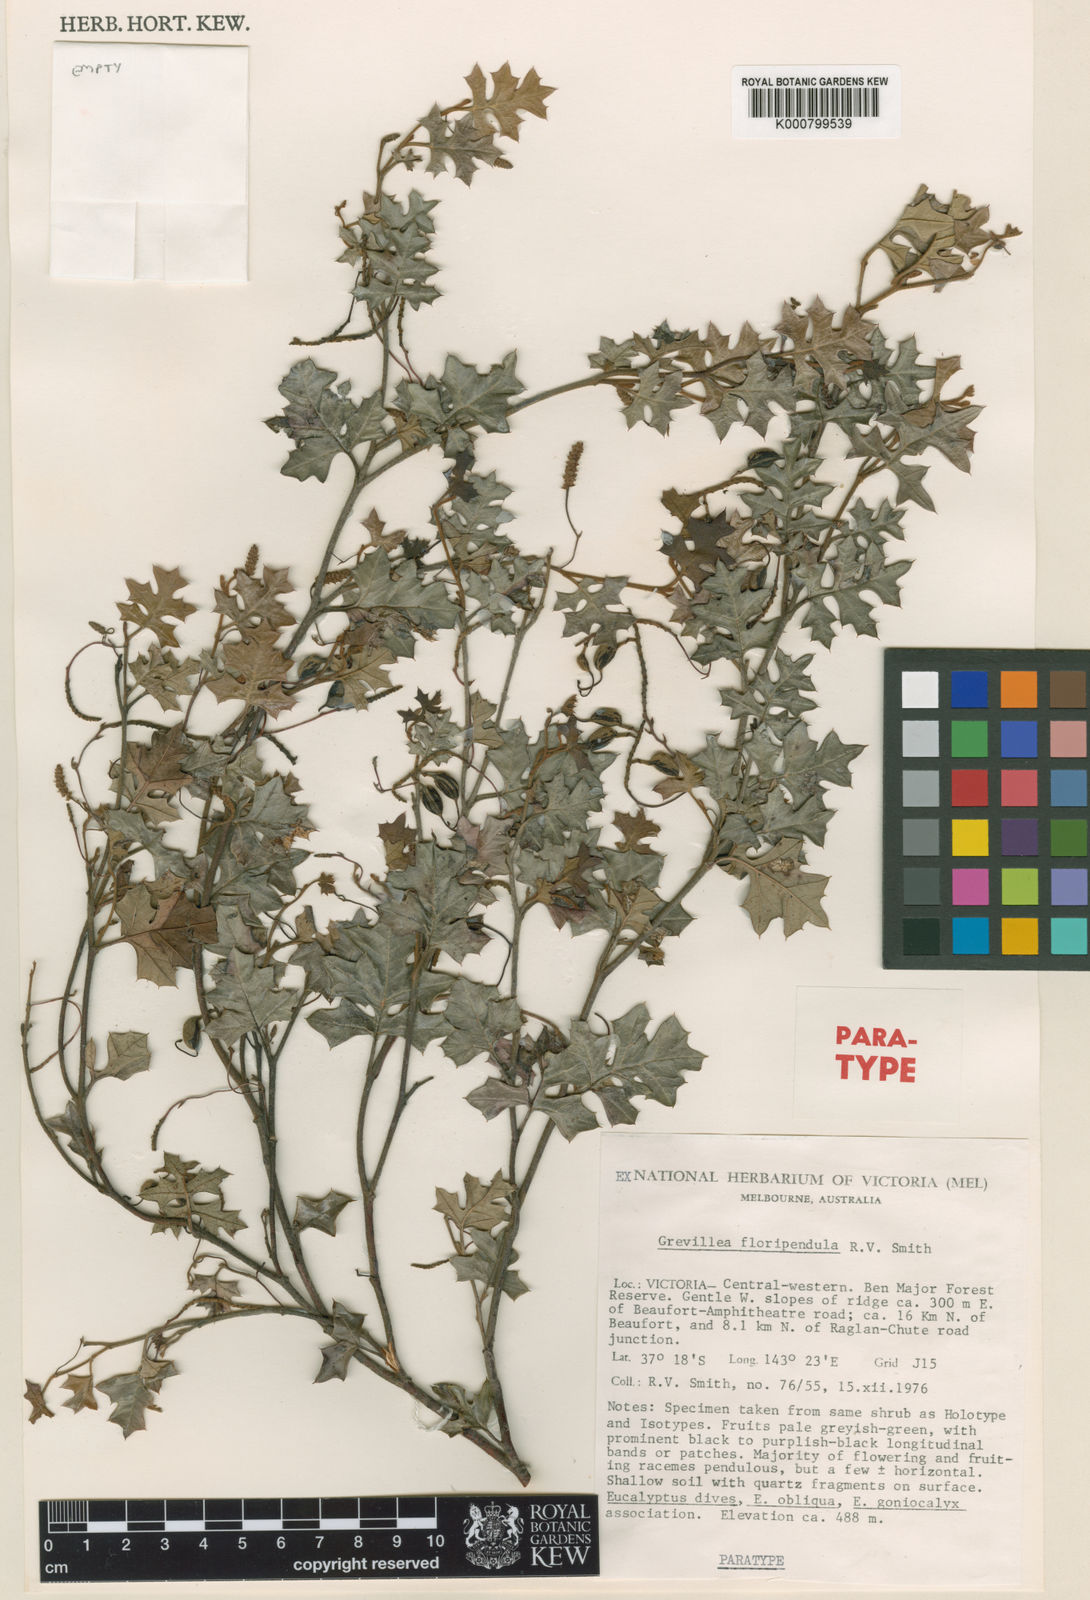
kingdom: Plantae
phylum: Tracheophyta
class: Magnoliopsida
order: Proteales
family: Proteaceae
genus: Grevillea
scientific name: Grevillea floripendula
